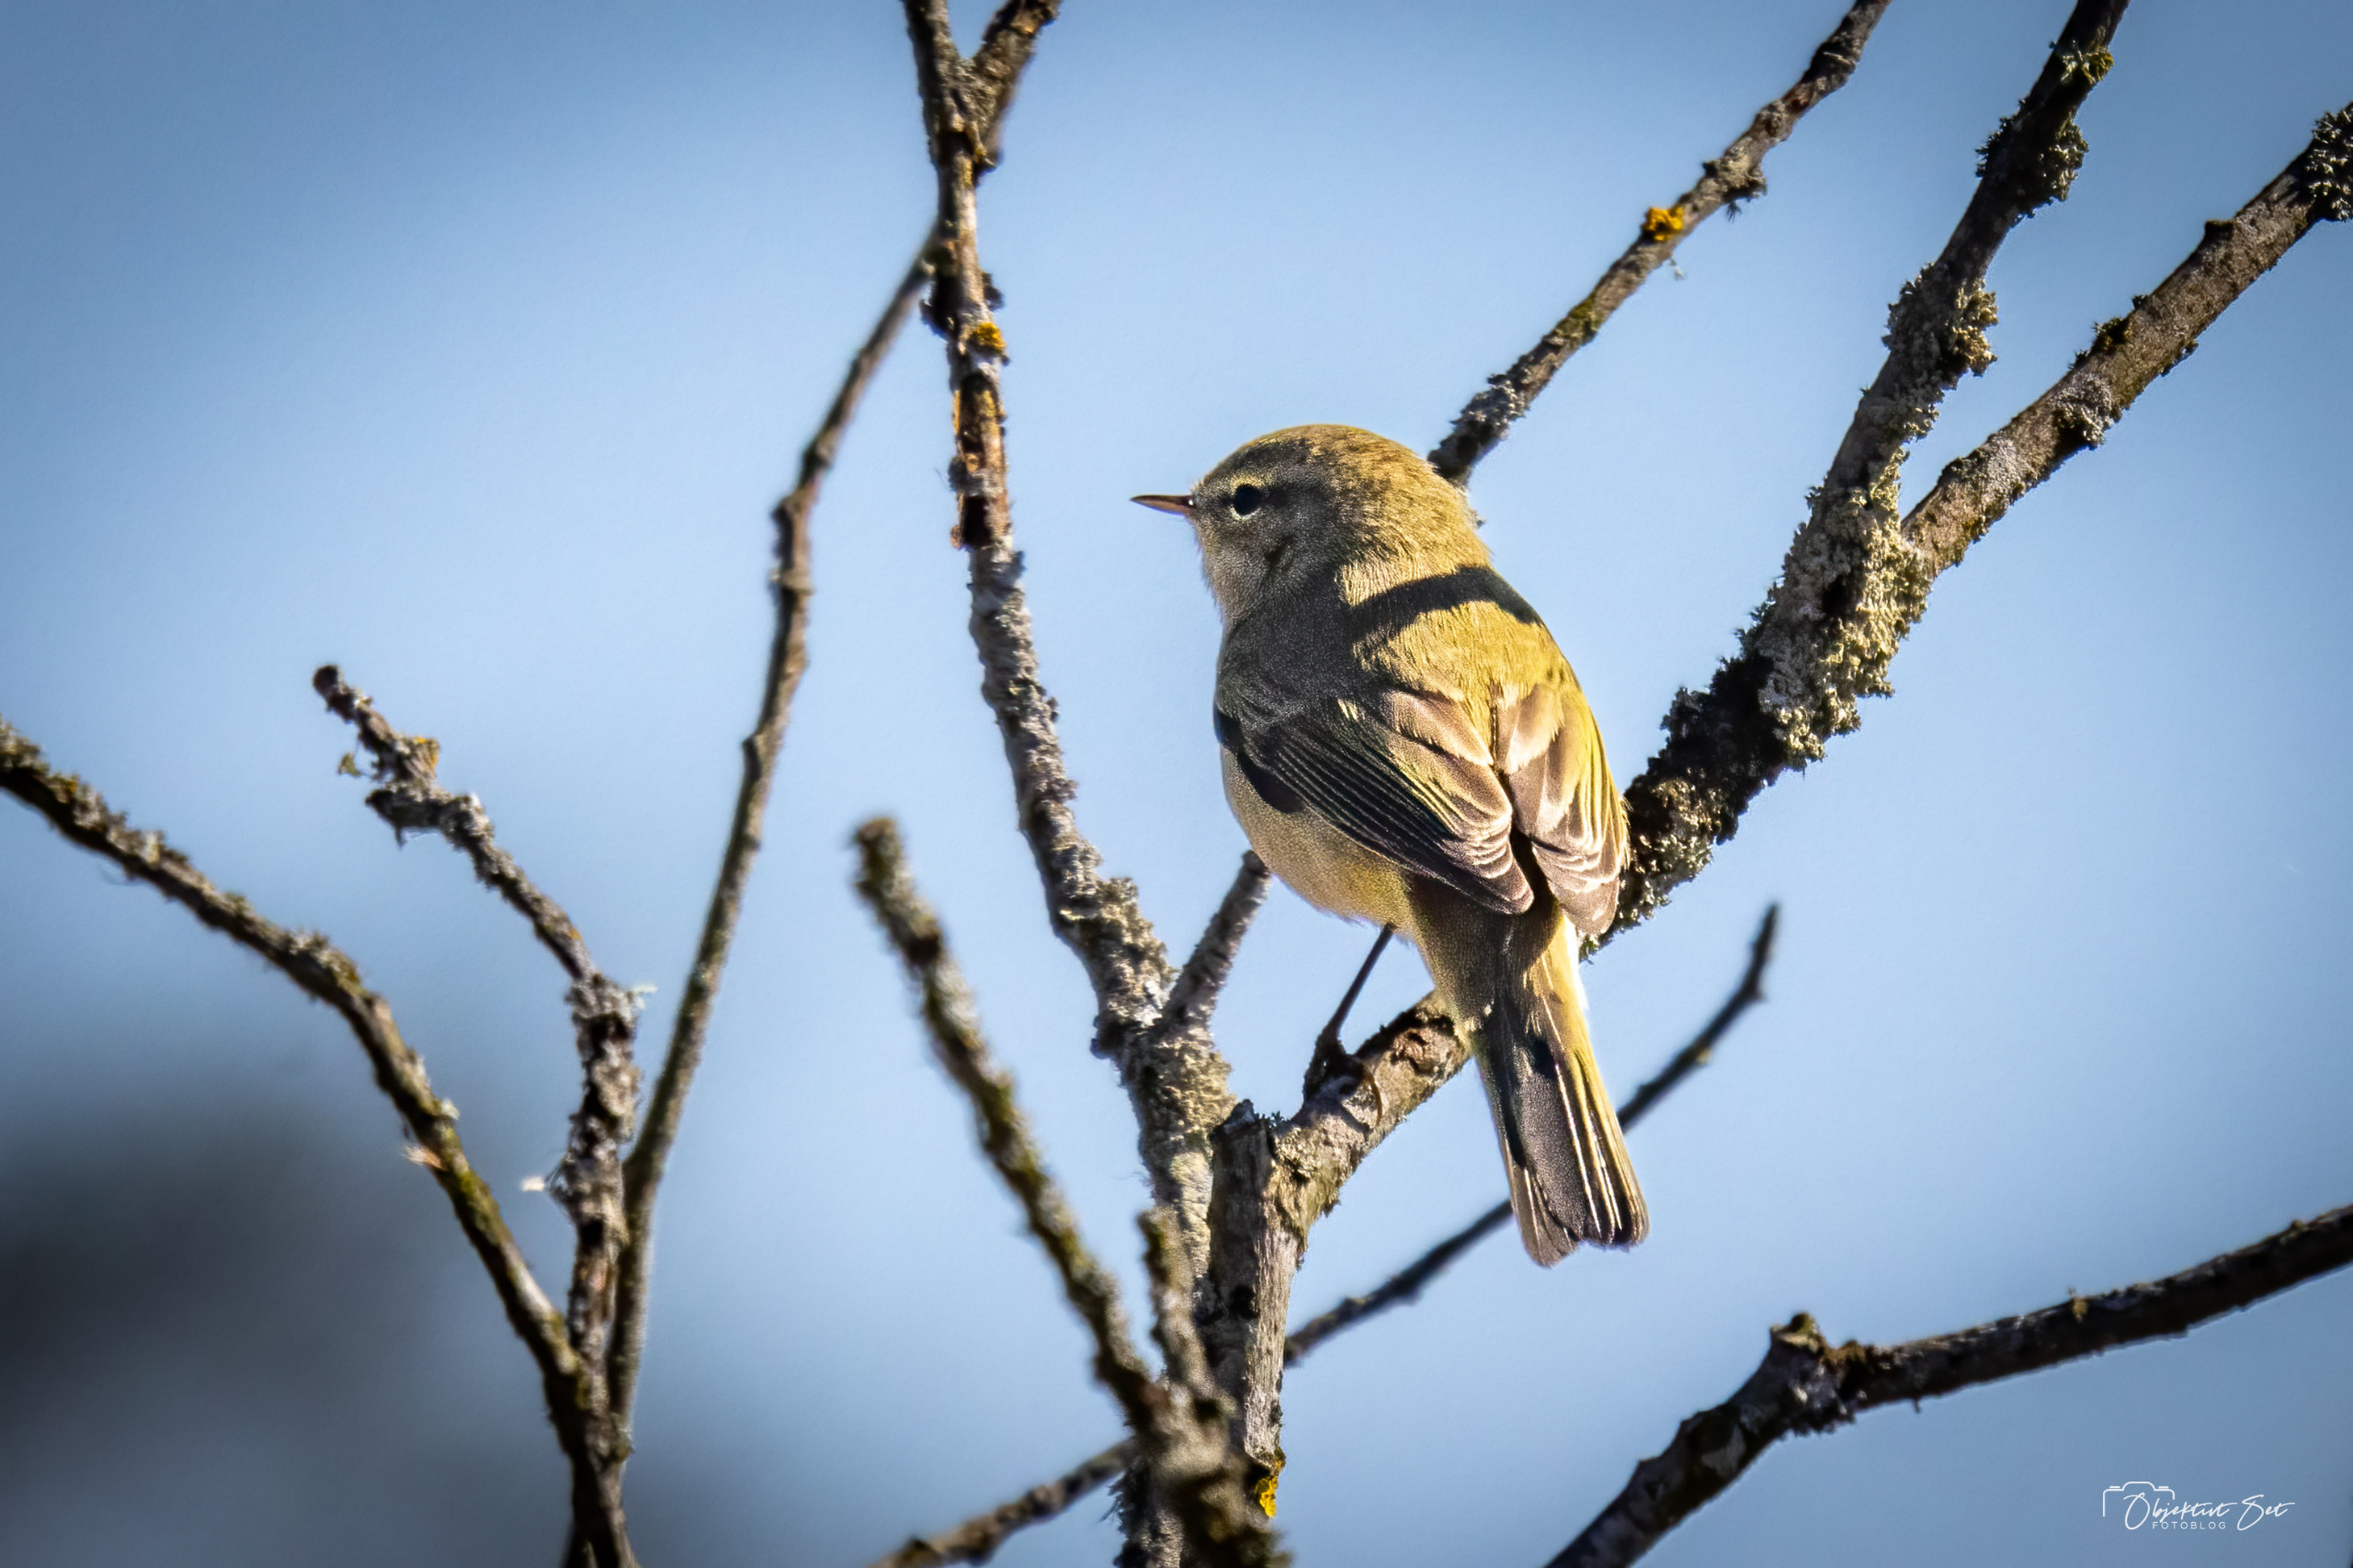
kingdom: Animalia
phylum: Chordata
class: Aves
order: Passeriformes
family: Phylloscopidae
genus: Phylloscopus
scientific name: Phylloscopus collybita
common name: Gransanger
